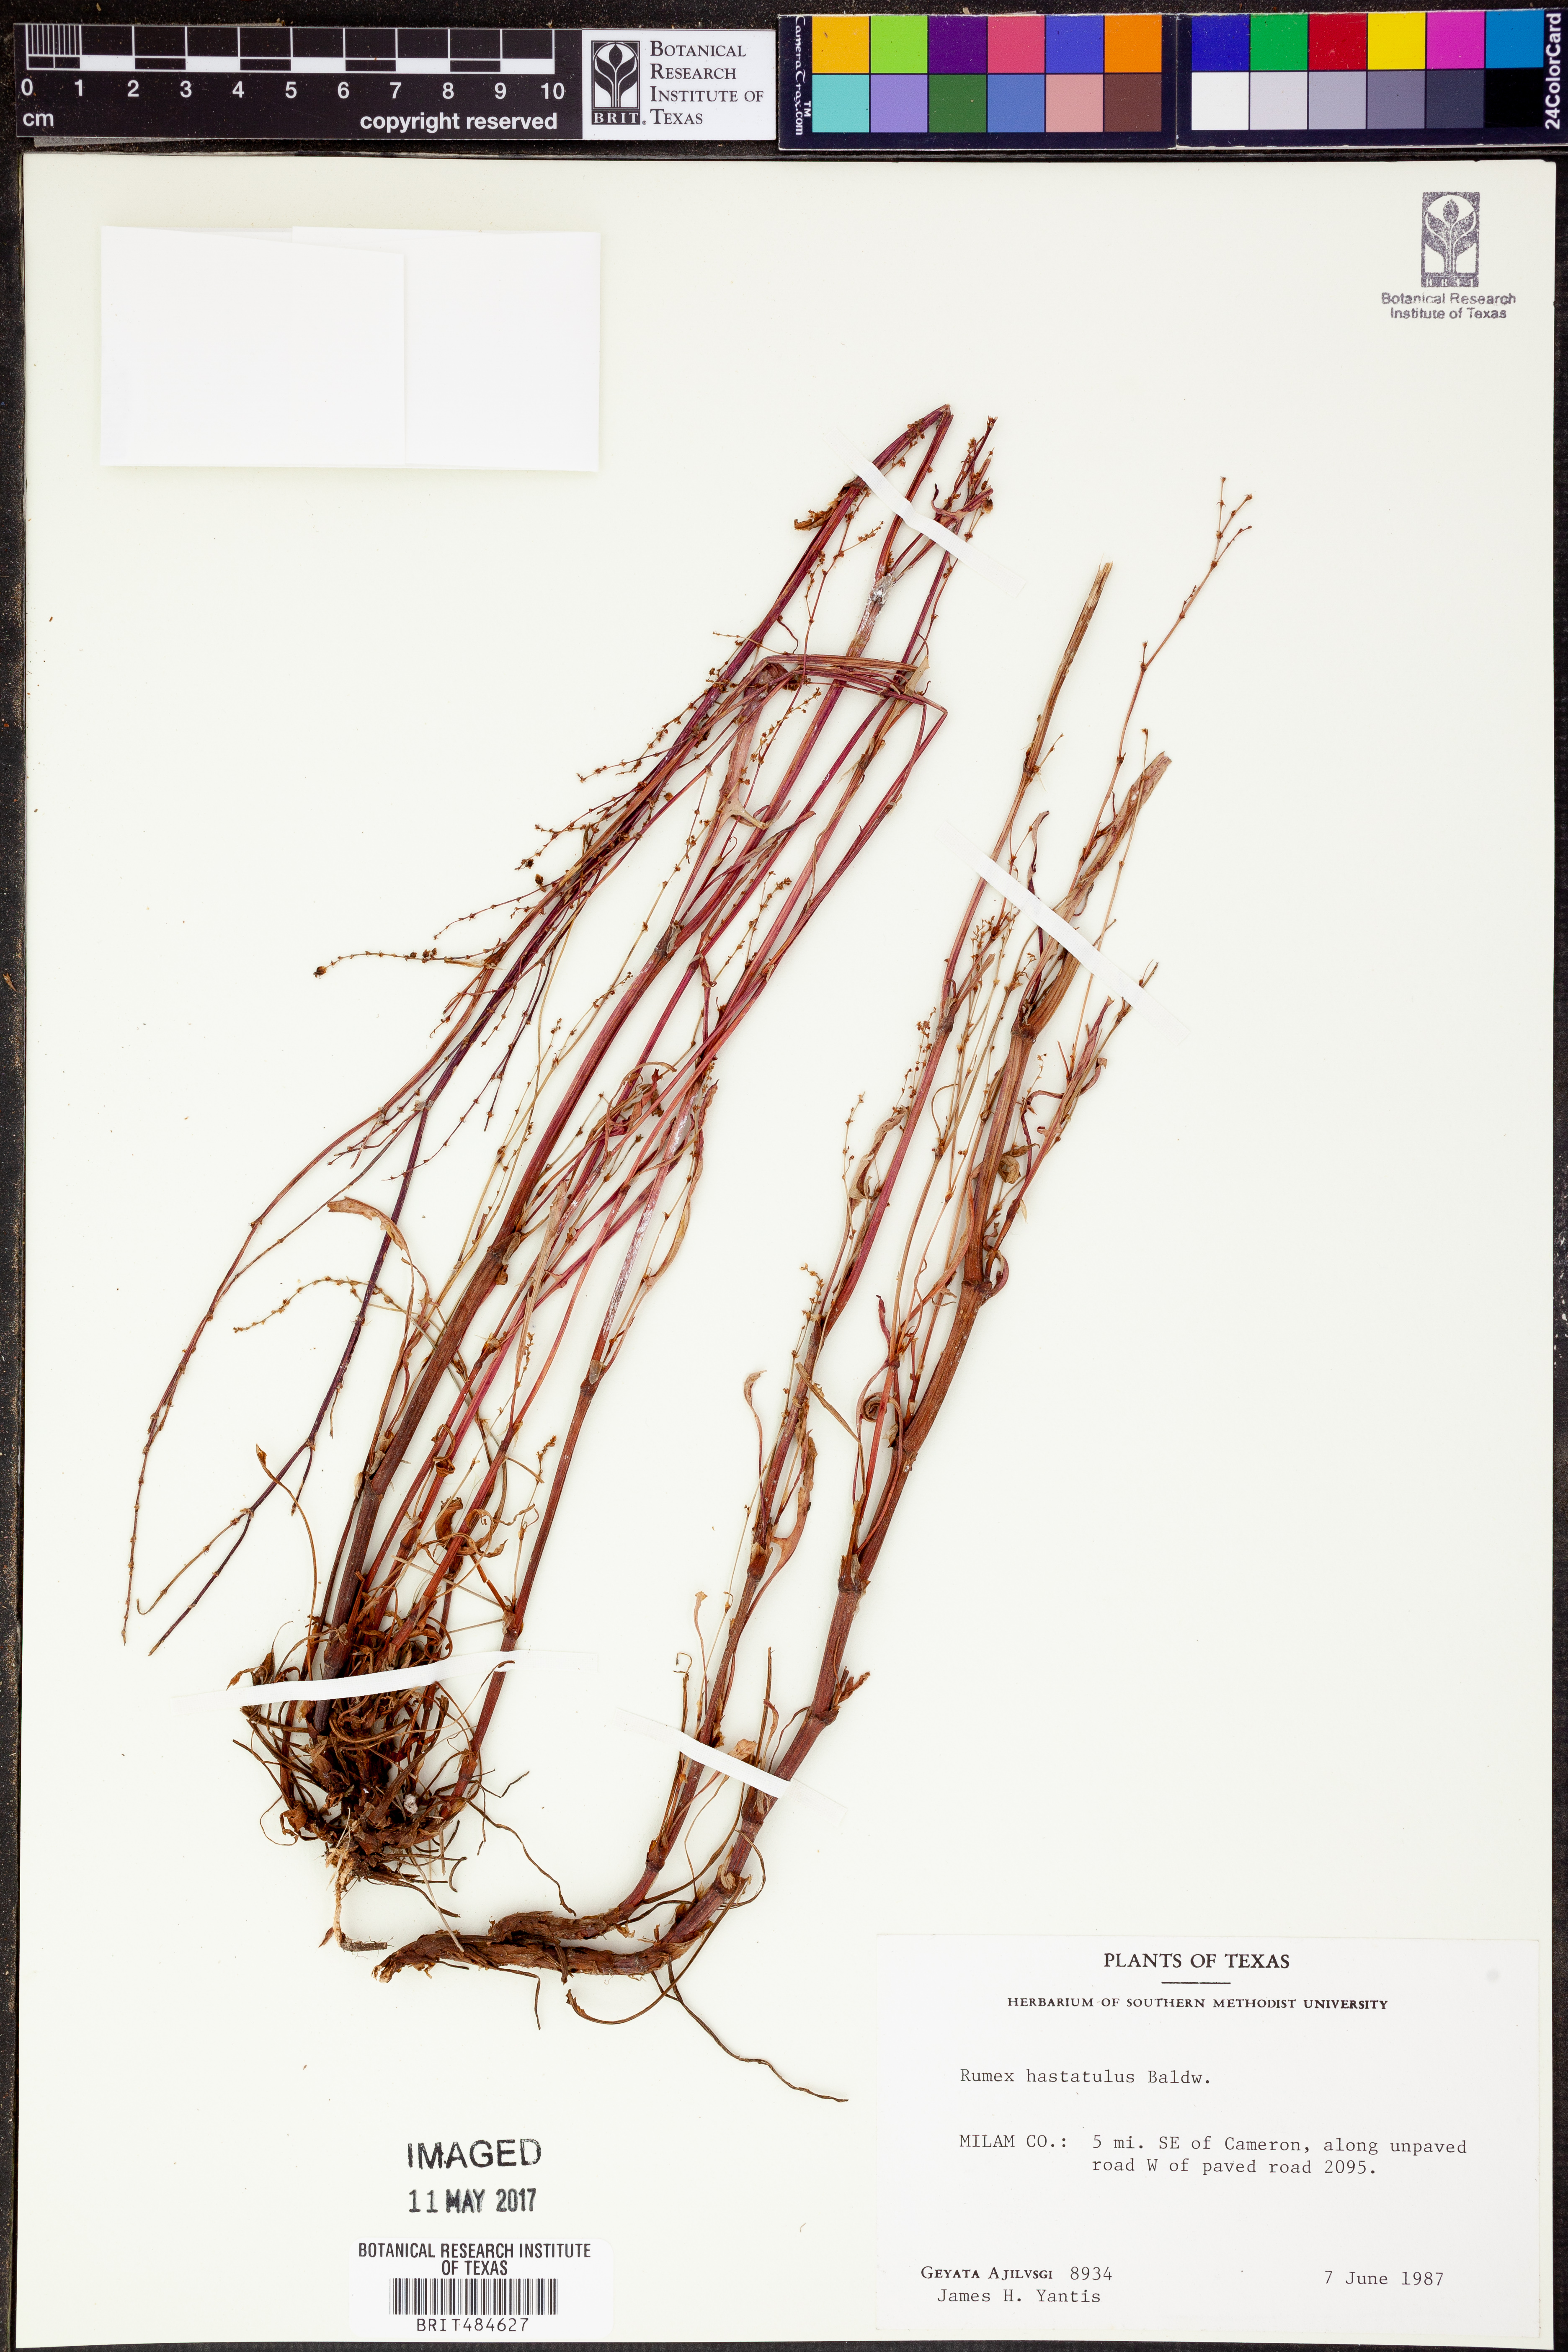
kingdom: Plantae
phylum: Tracheophyta
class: Magnoliopsida
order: Caryophyllales
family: Polygonaceae
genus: Rumex
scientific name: Rumex hastatulus
